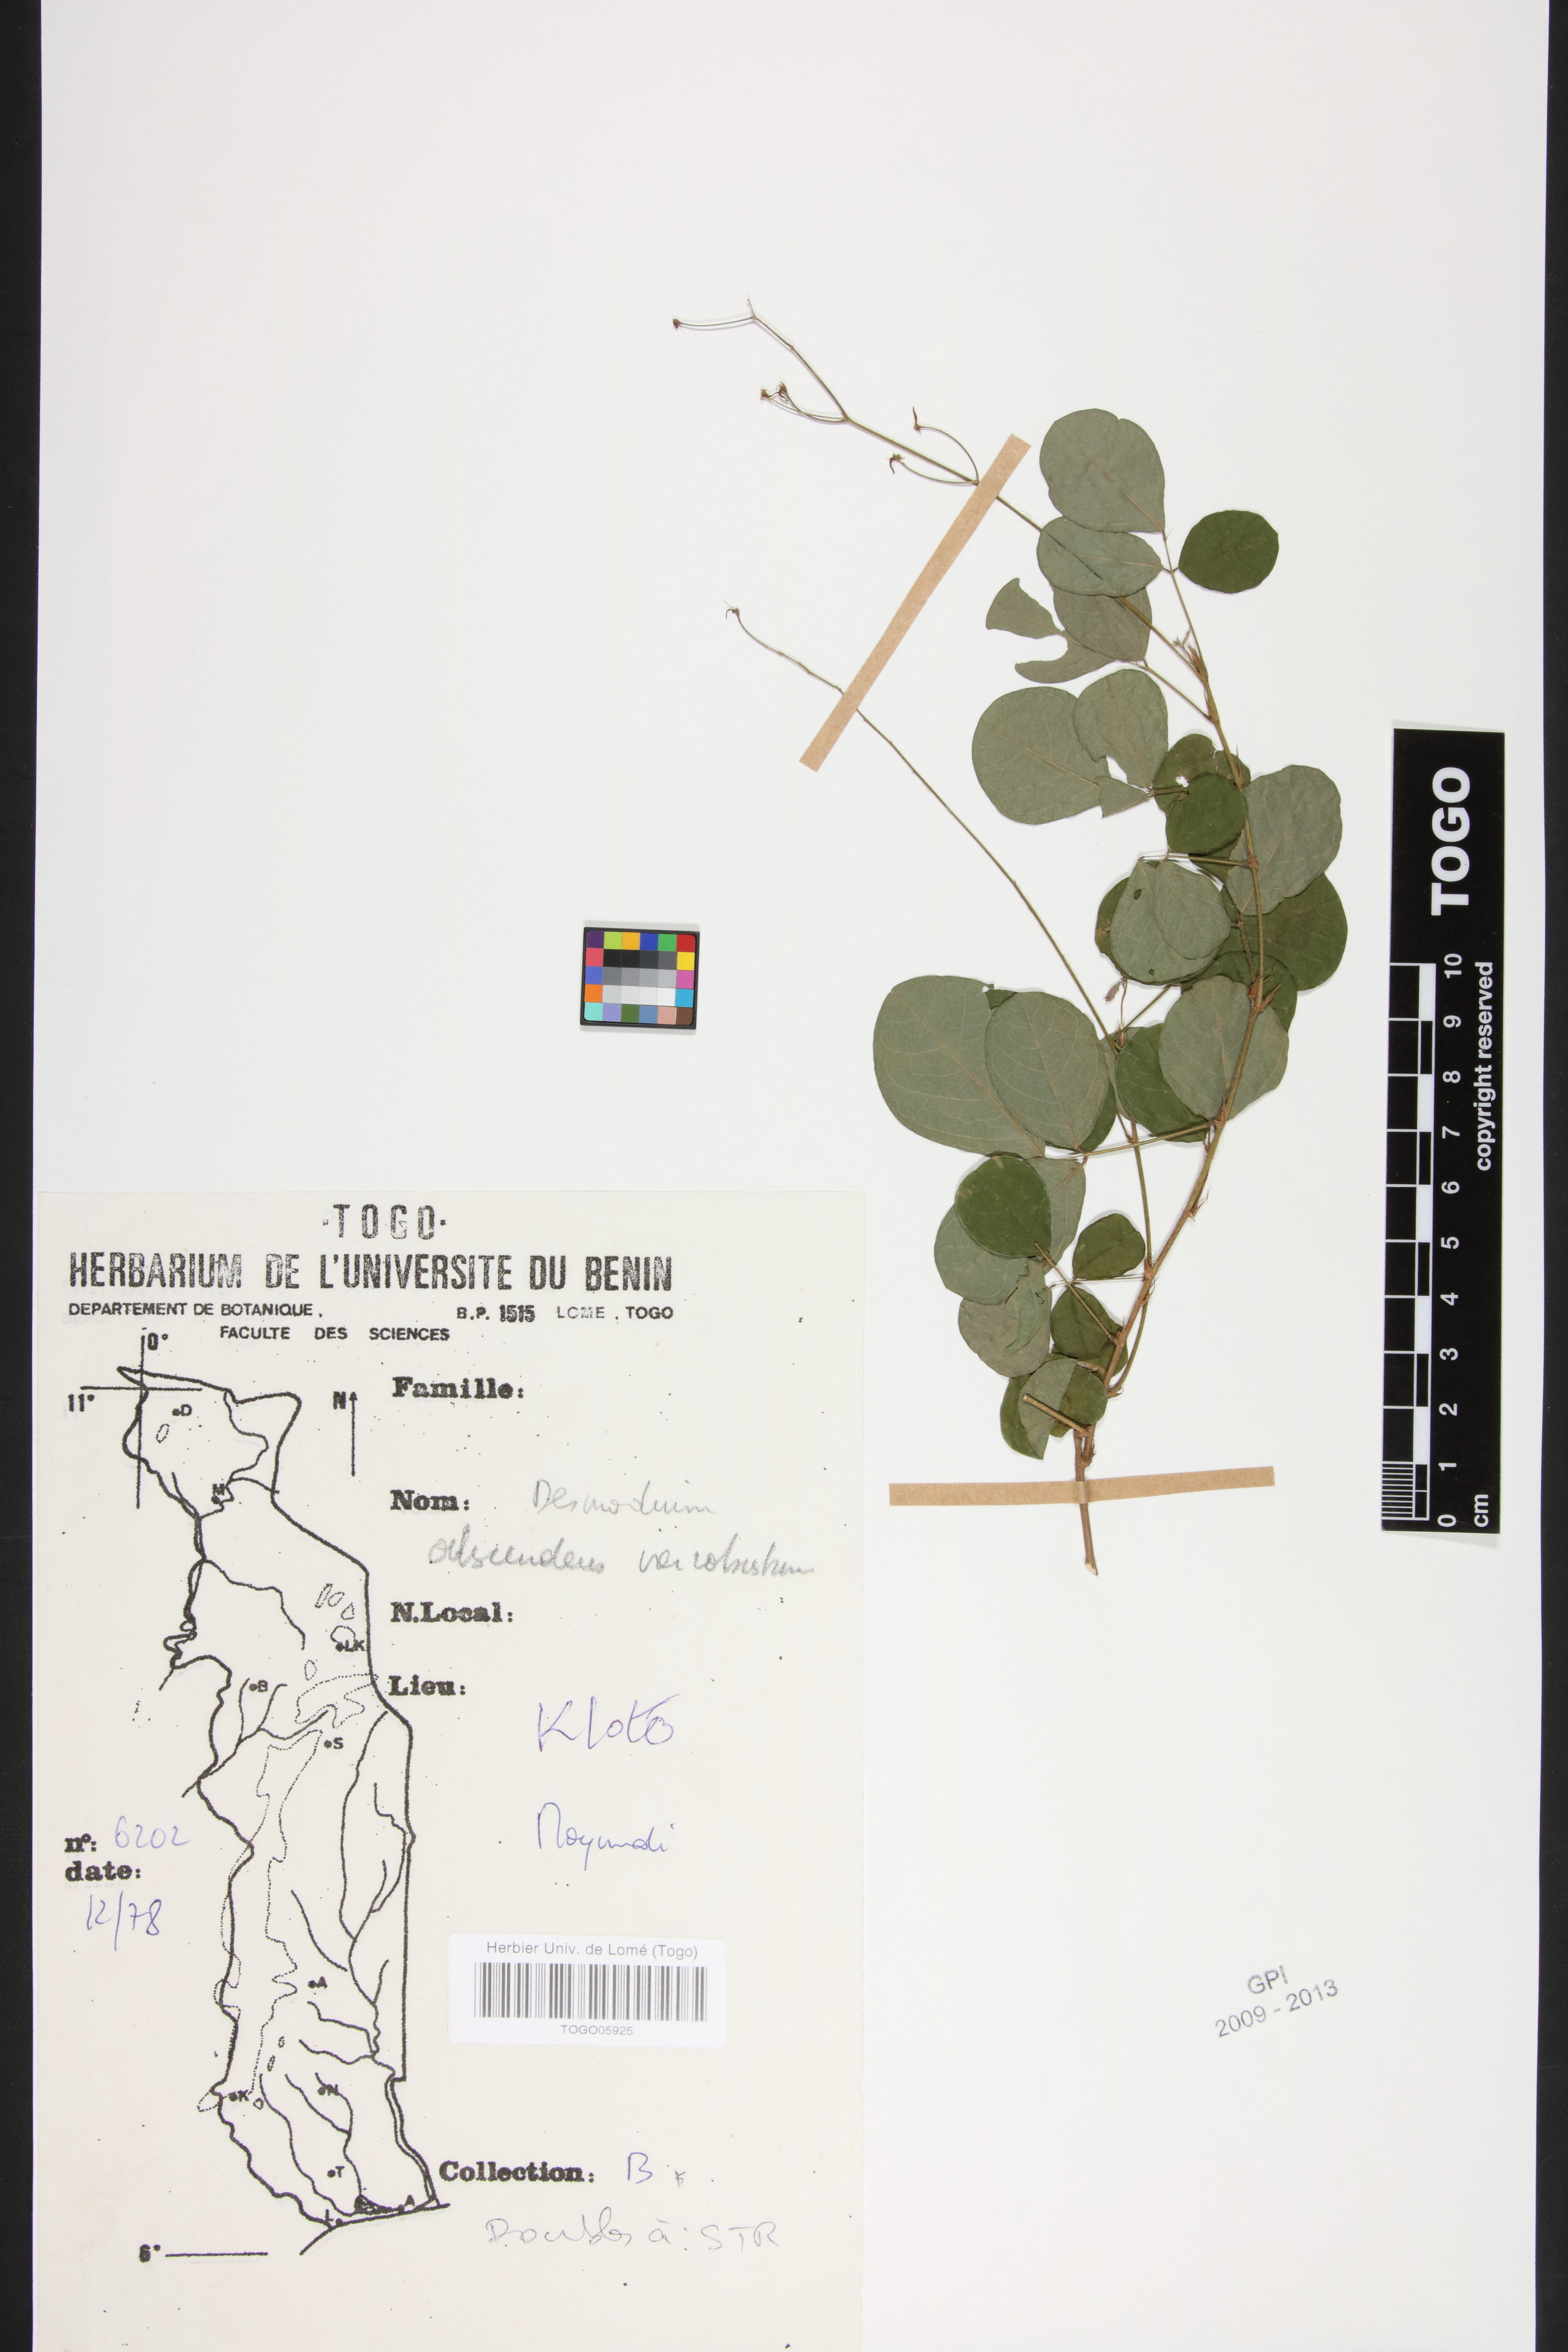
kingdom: Plantae
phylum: Tracheophyta
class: Magnoliopsida
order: Fabales
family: Fabaceae
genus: Grona
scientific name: Grona adscendens
